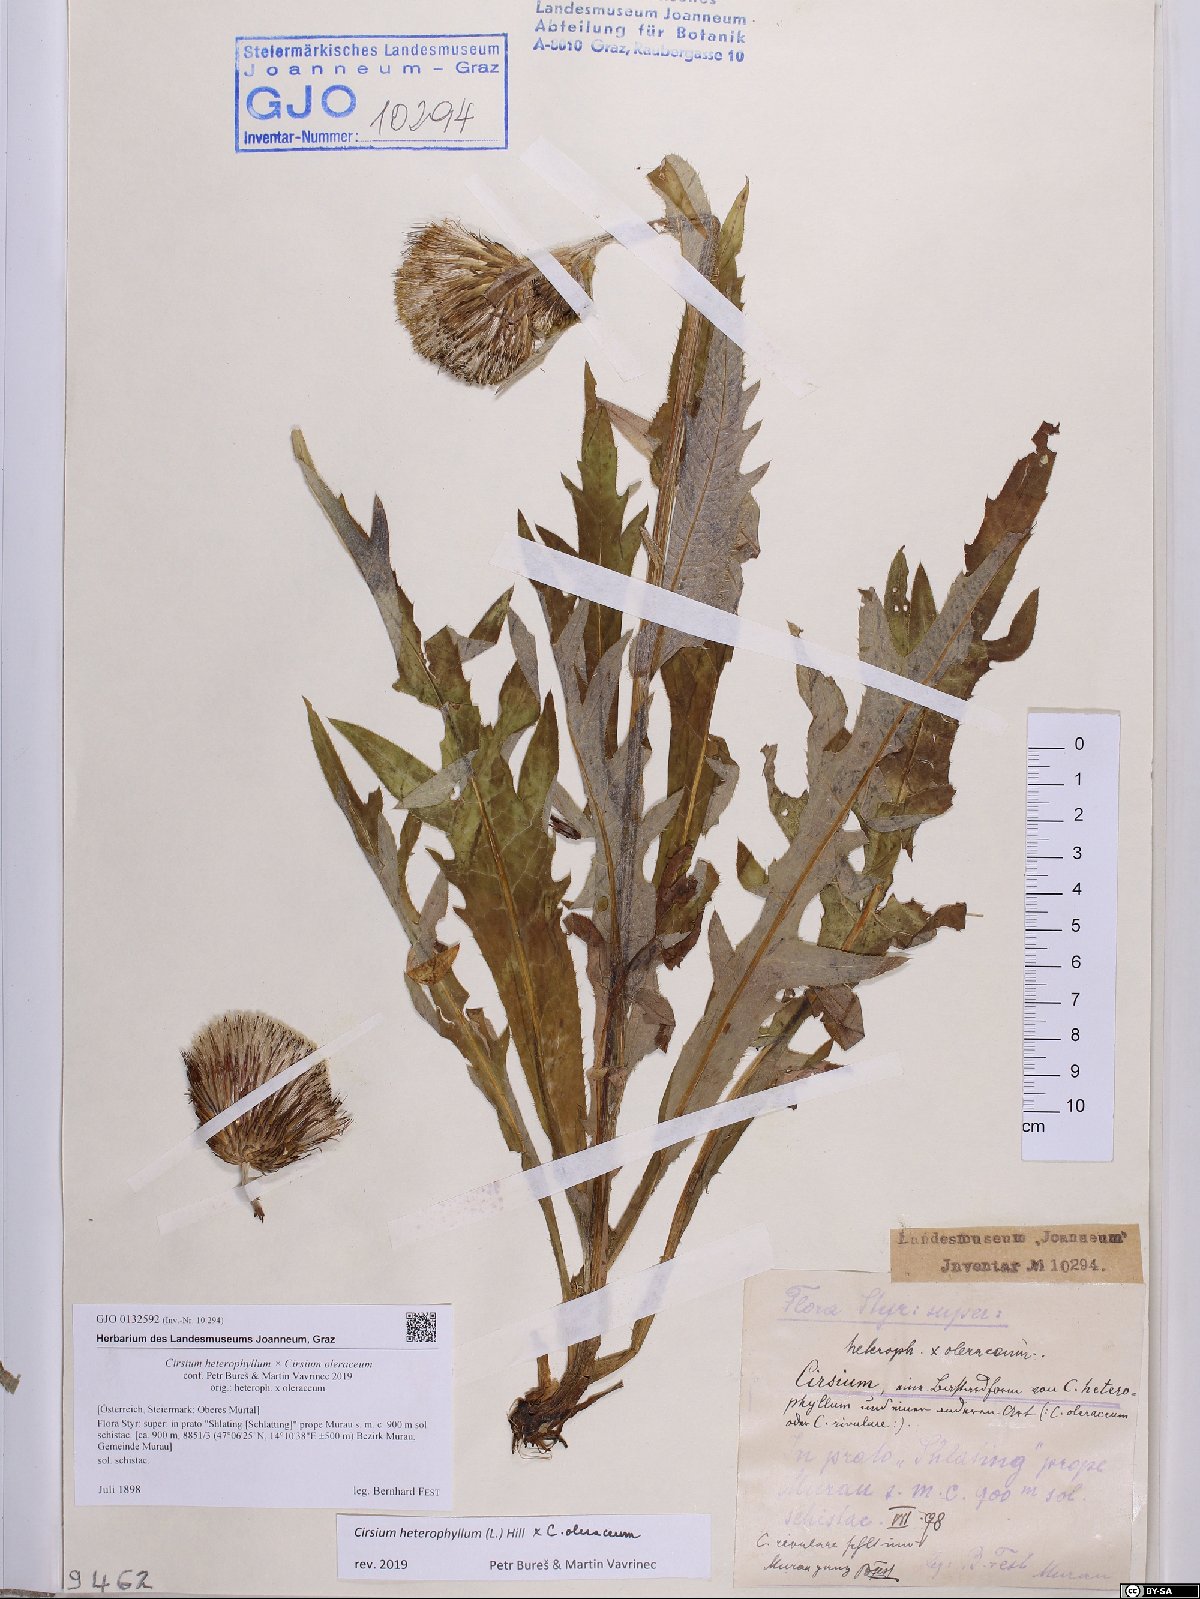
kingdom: Plantae
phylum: Tracheophyta
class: Magnoliopsida
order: Asterales
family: Asteraceae
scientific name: Asteraceae
